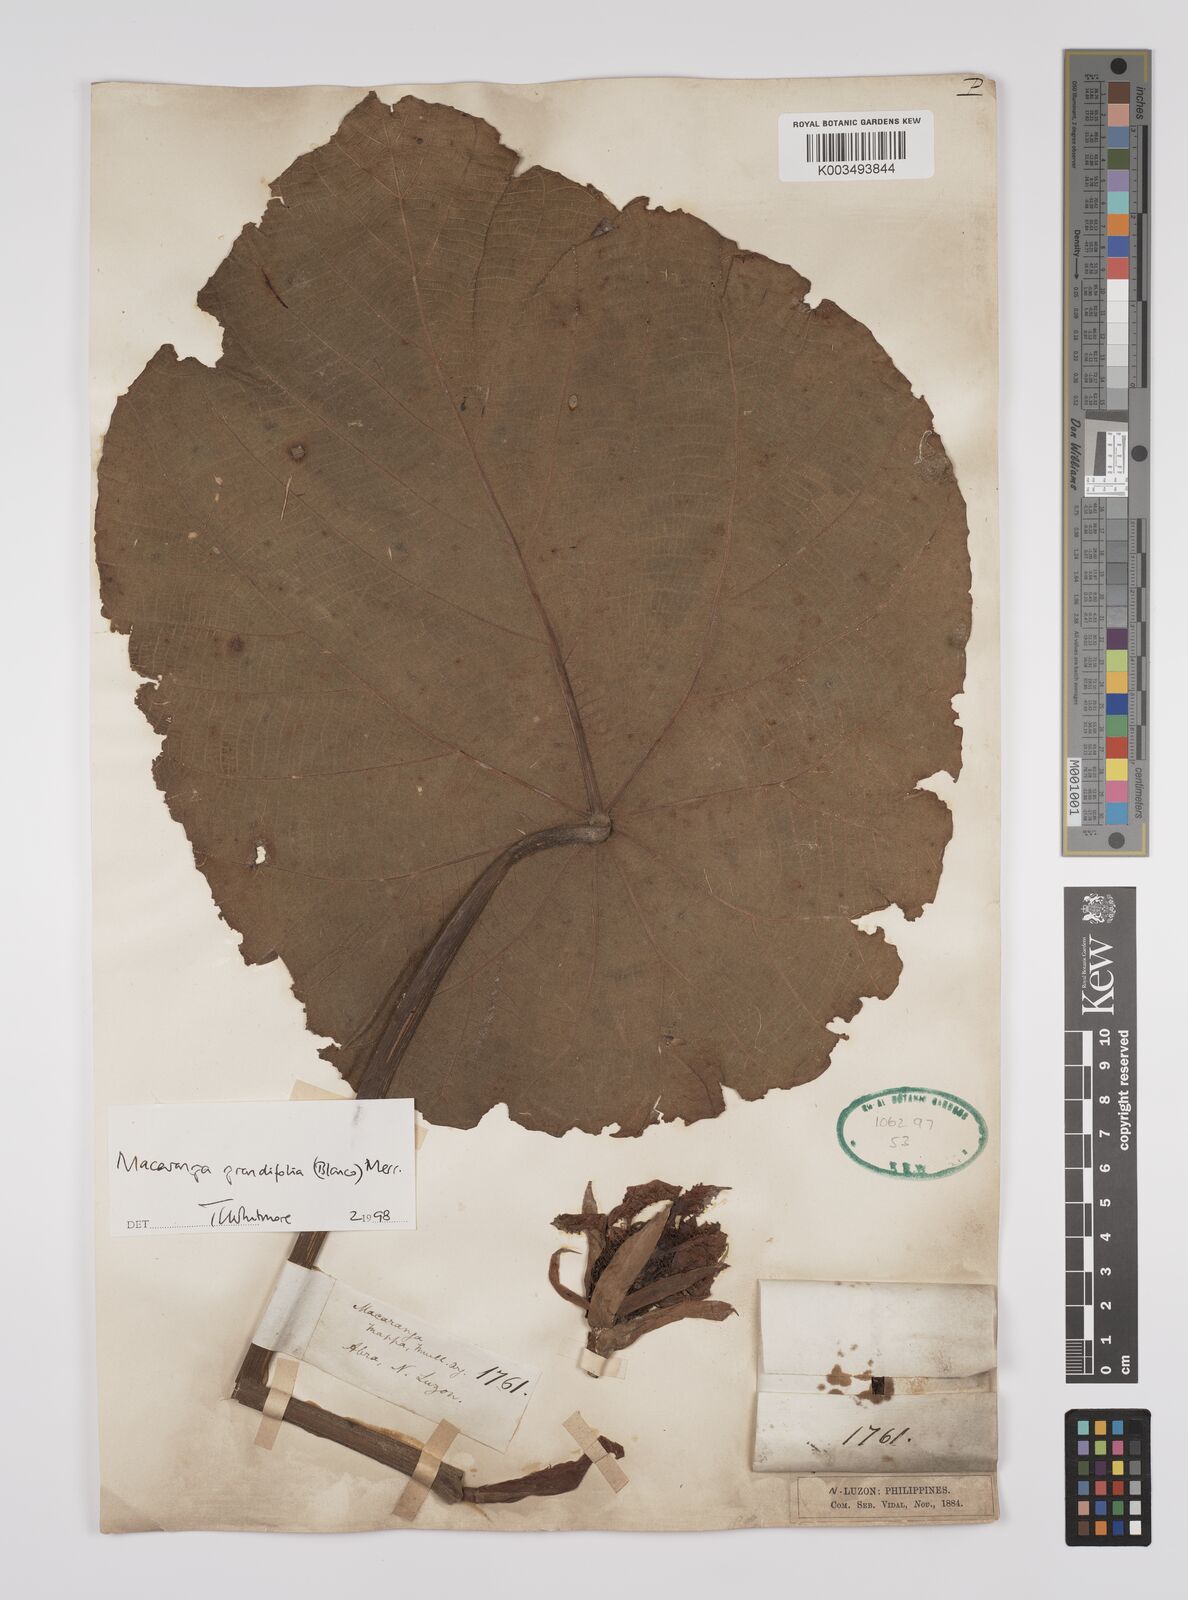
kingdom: Plantae
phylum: Tracheophyta
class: Magnoliopsida
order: Malpighiales
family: Euphorbiaceae
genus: Macaranga
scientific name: Macaranga grandifolia
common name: Coraltree
